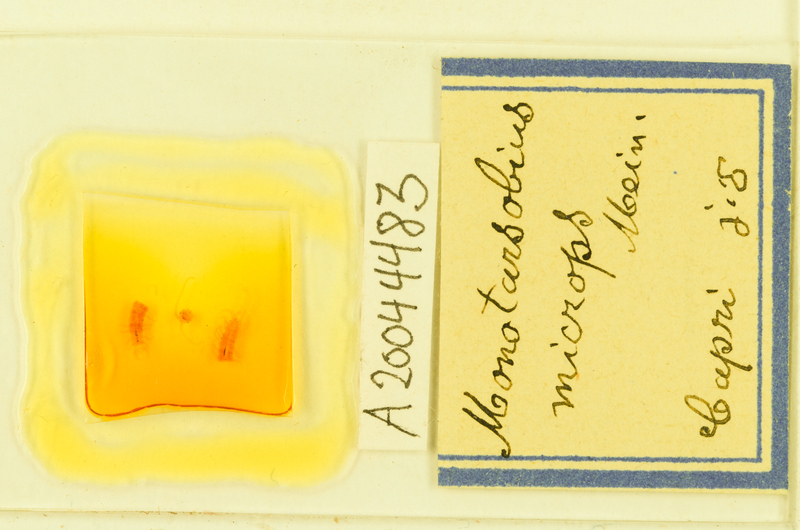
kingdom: Animalia
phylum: Arthropoda
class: Chilopoda
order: Lithobiomorpha
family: Lithobiidae
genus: Monotarsobius
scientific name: Monotarsobius microps
